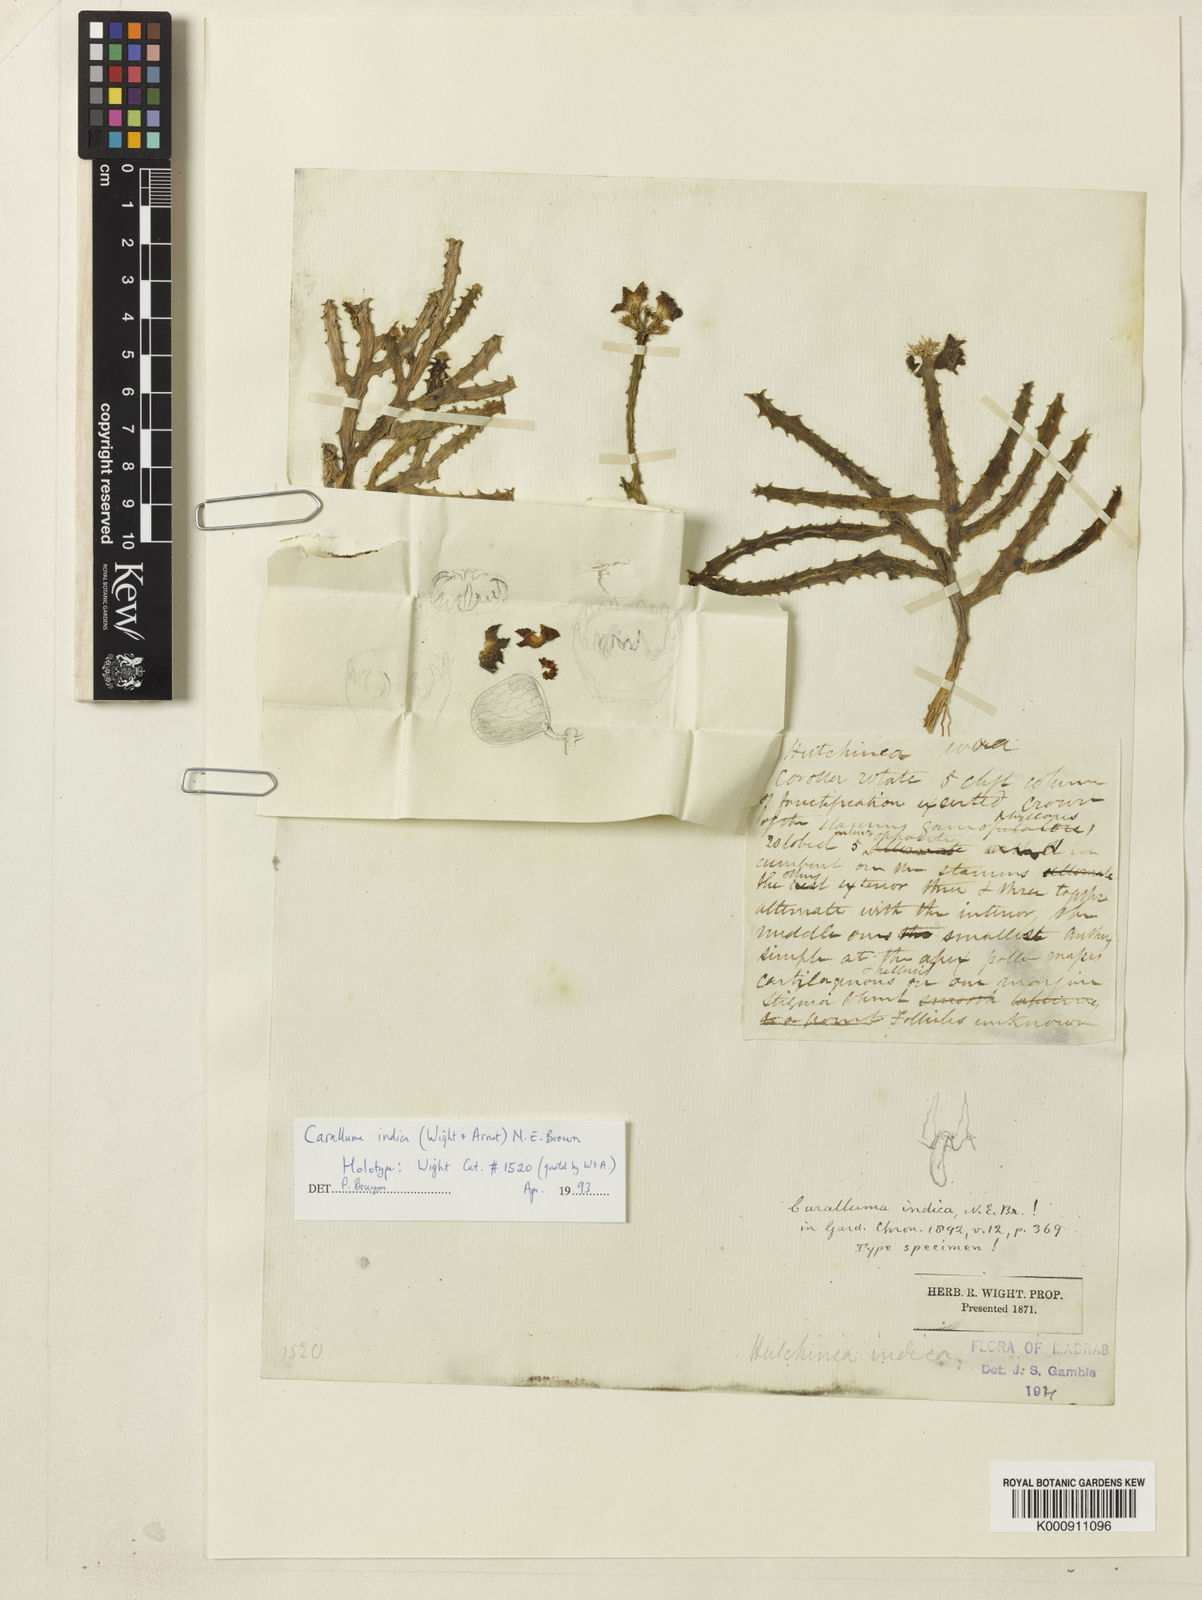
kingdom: Plantae
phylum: Tracheophyta
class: Magnoliopsida
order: Gentianales
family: Apocynaceae
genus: Ceropegia
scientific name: Ceropegia indica
